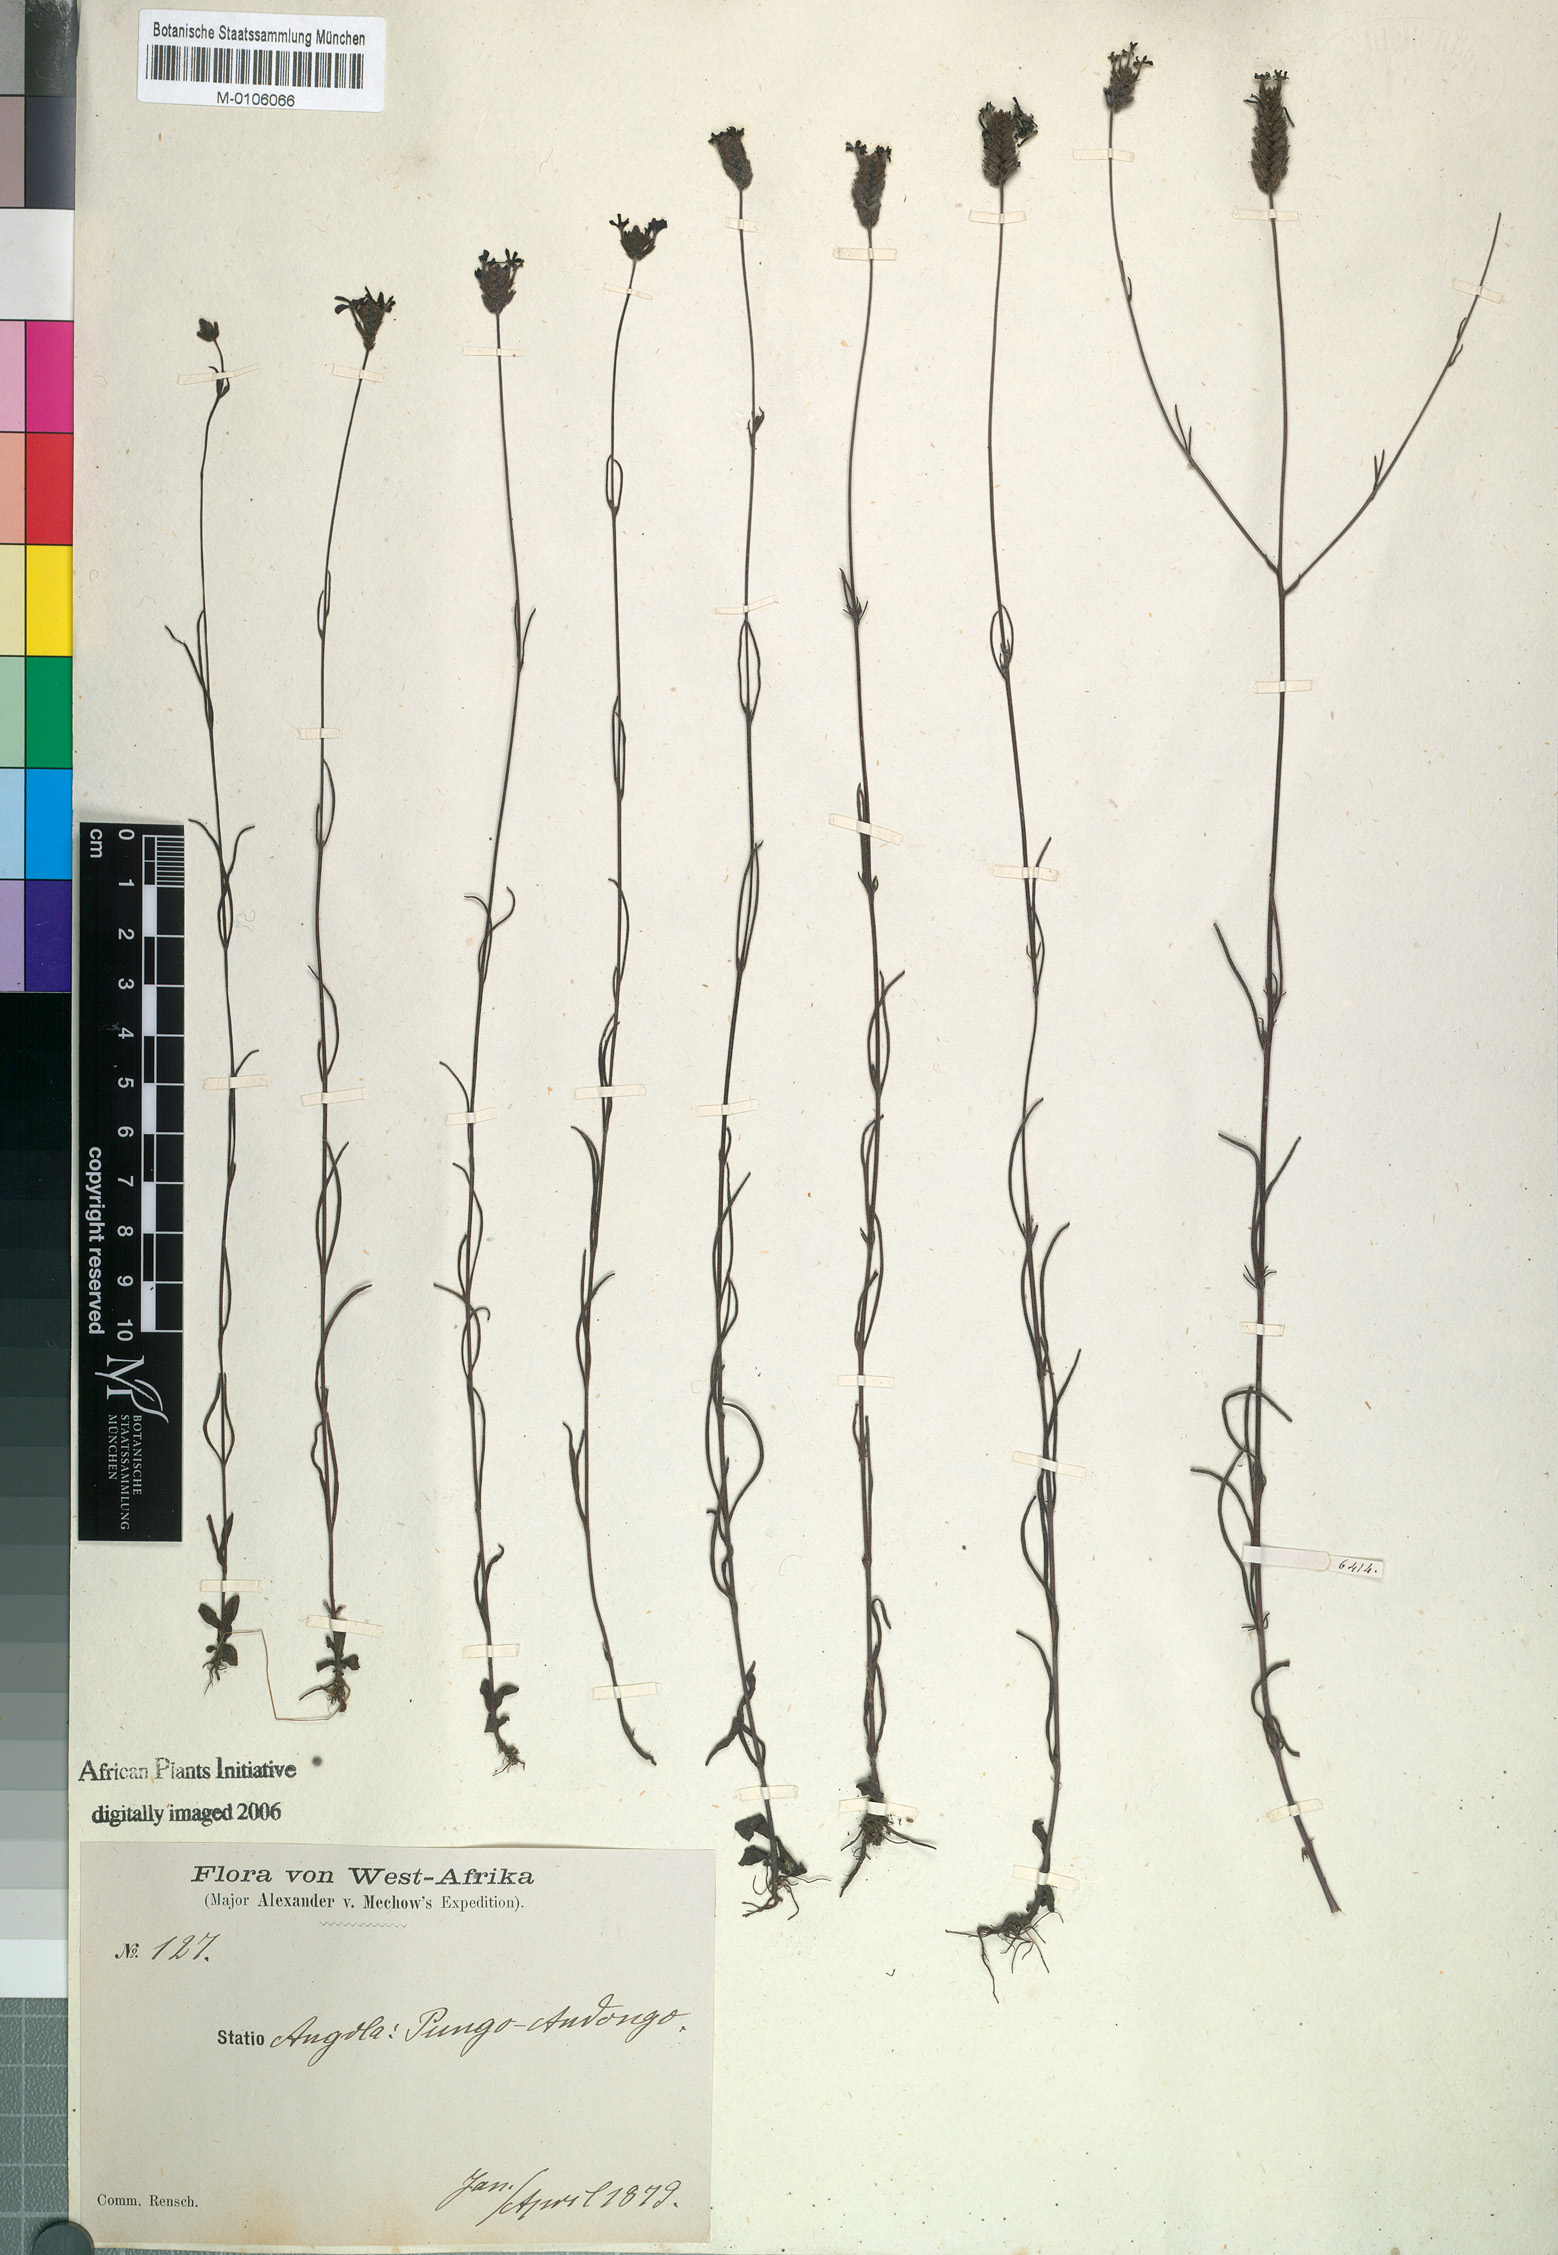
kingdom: Plantae
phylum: Tracheophyta
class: Magnoliopsida
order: Lamiales
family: Orobanchaceae
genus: Buchnera
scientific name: Buchnera welwitschii
